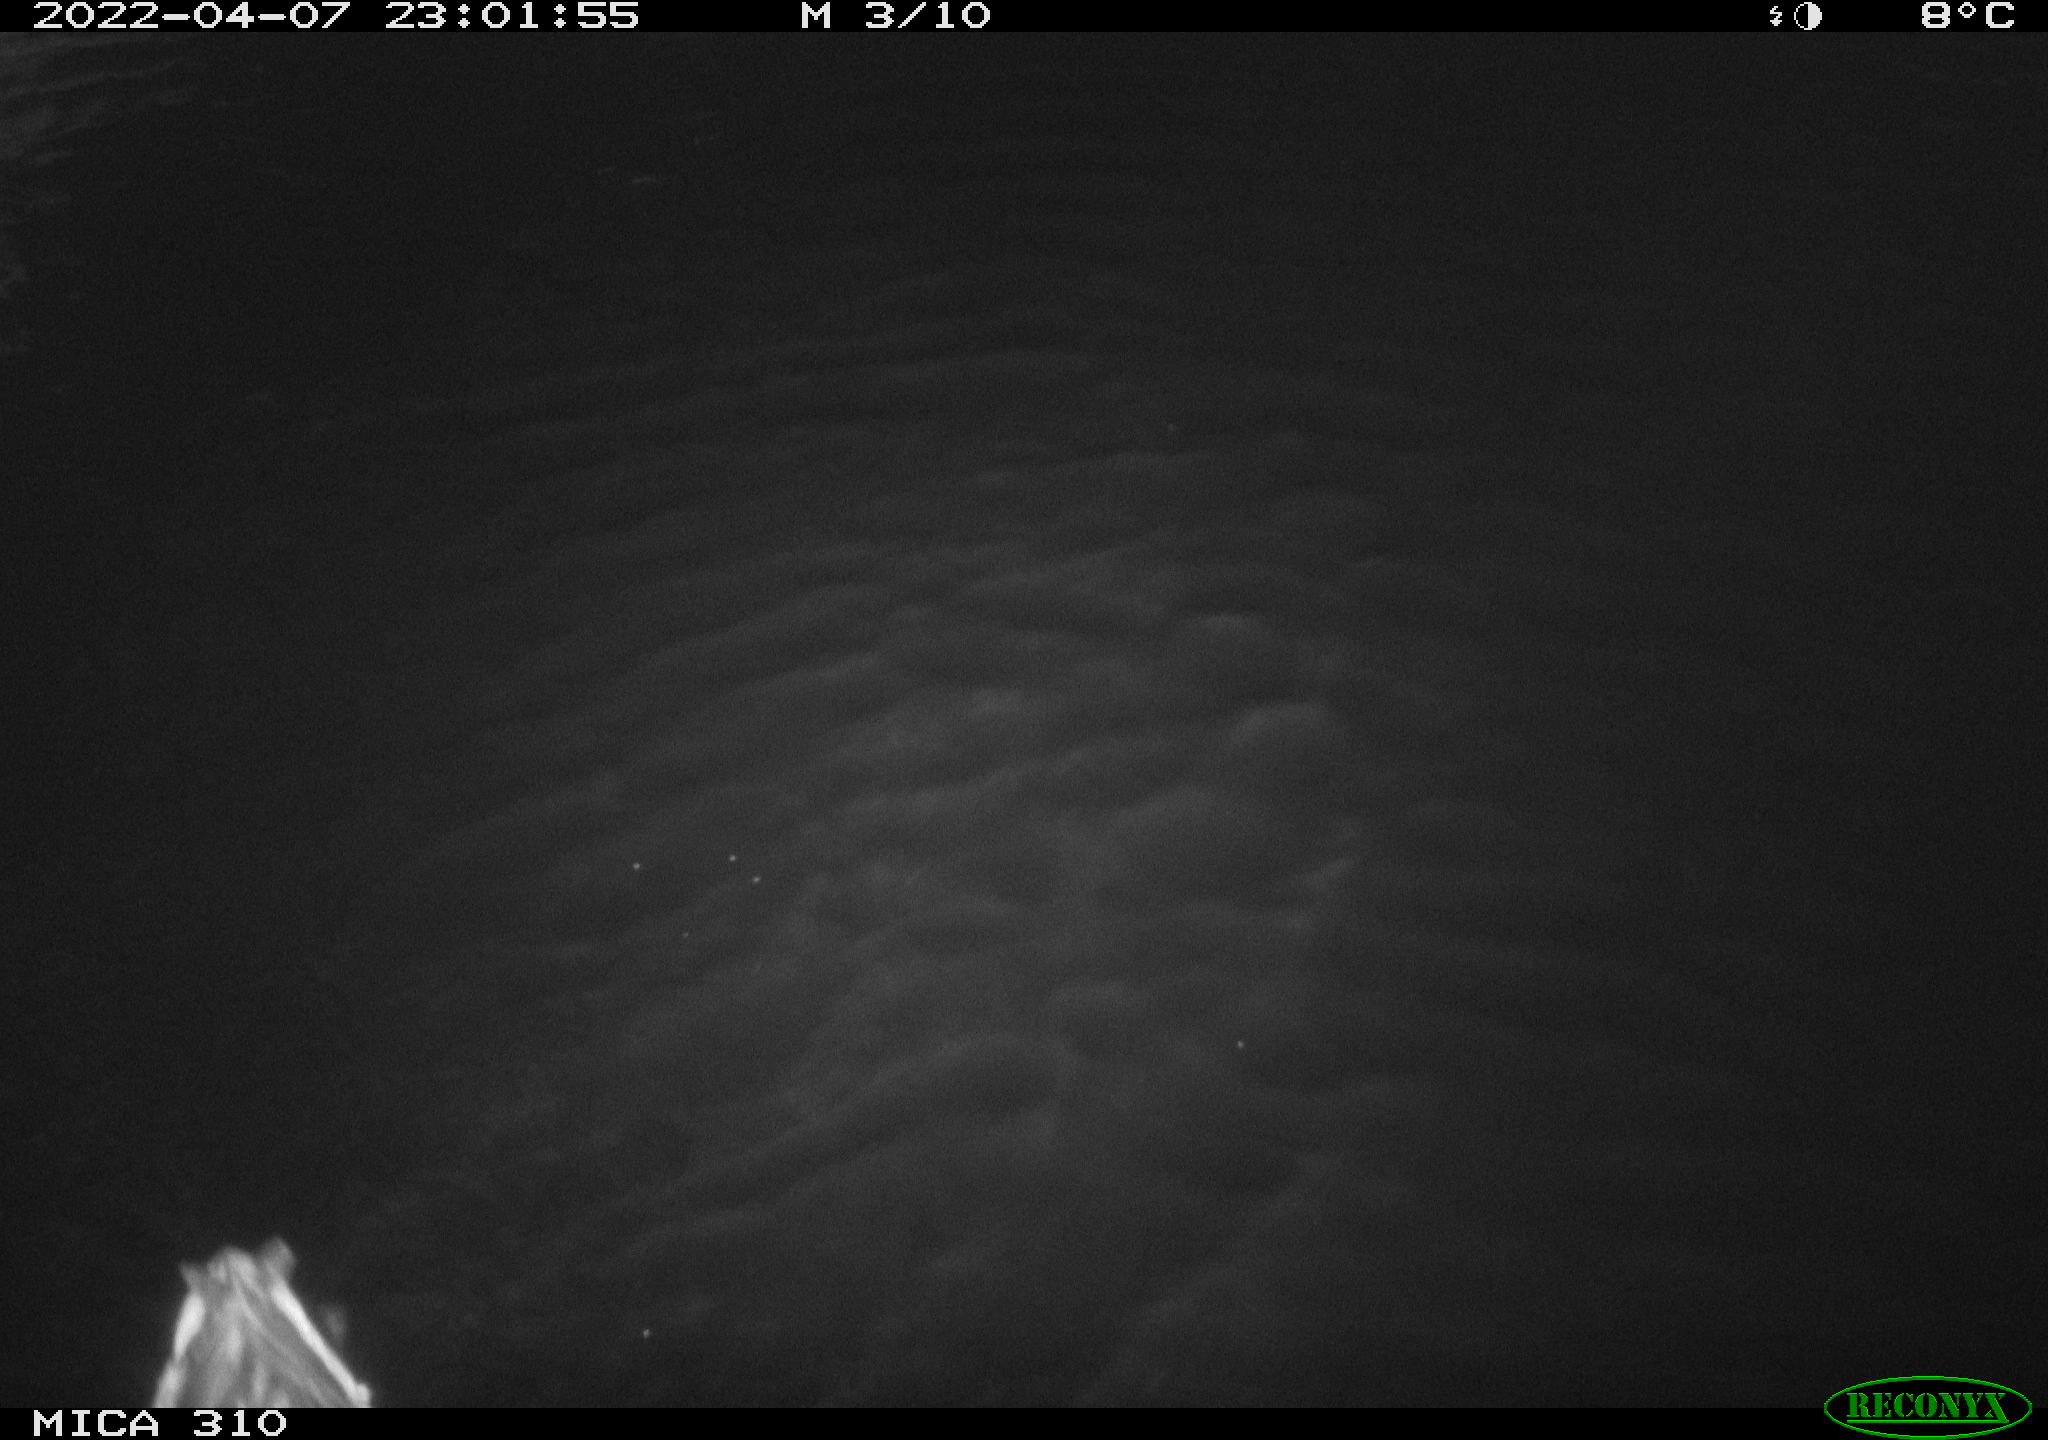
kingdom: Animalia
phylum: Chordata
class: Aves
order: Anseriformes
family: Anatidae
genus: Anas
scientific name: Anas platyrhynchos
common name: Mallard
